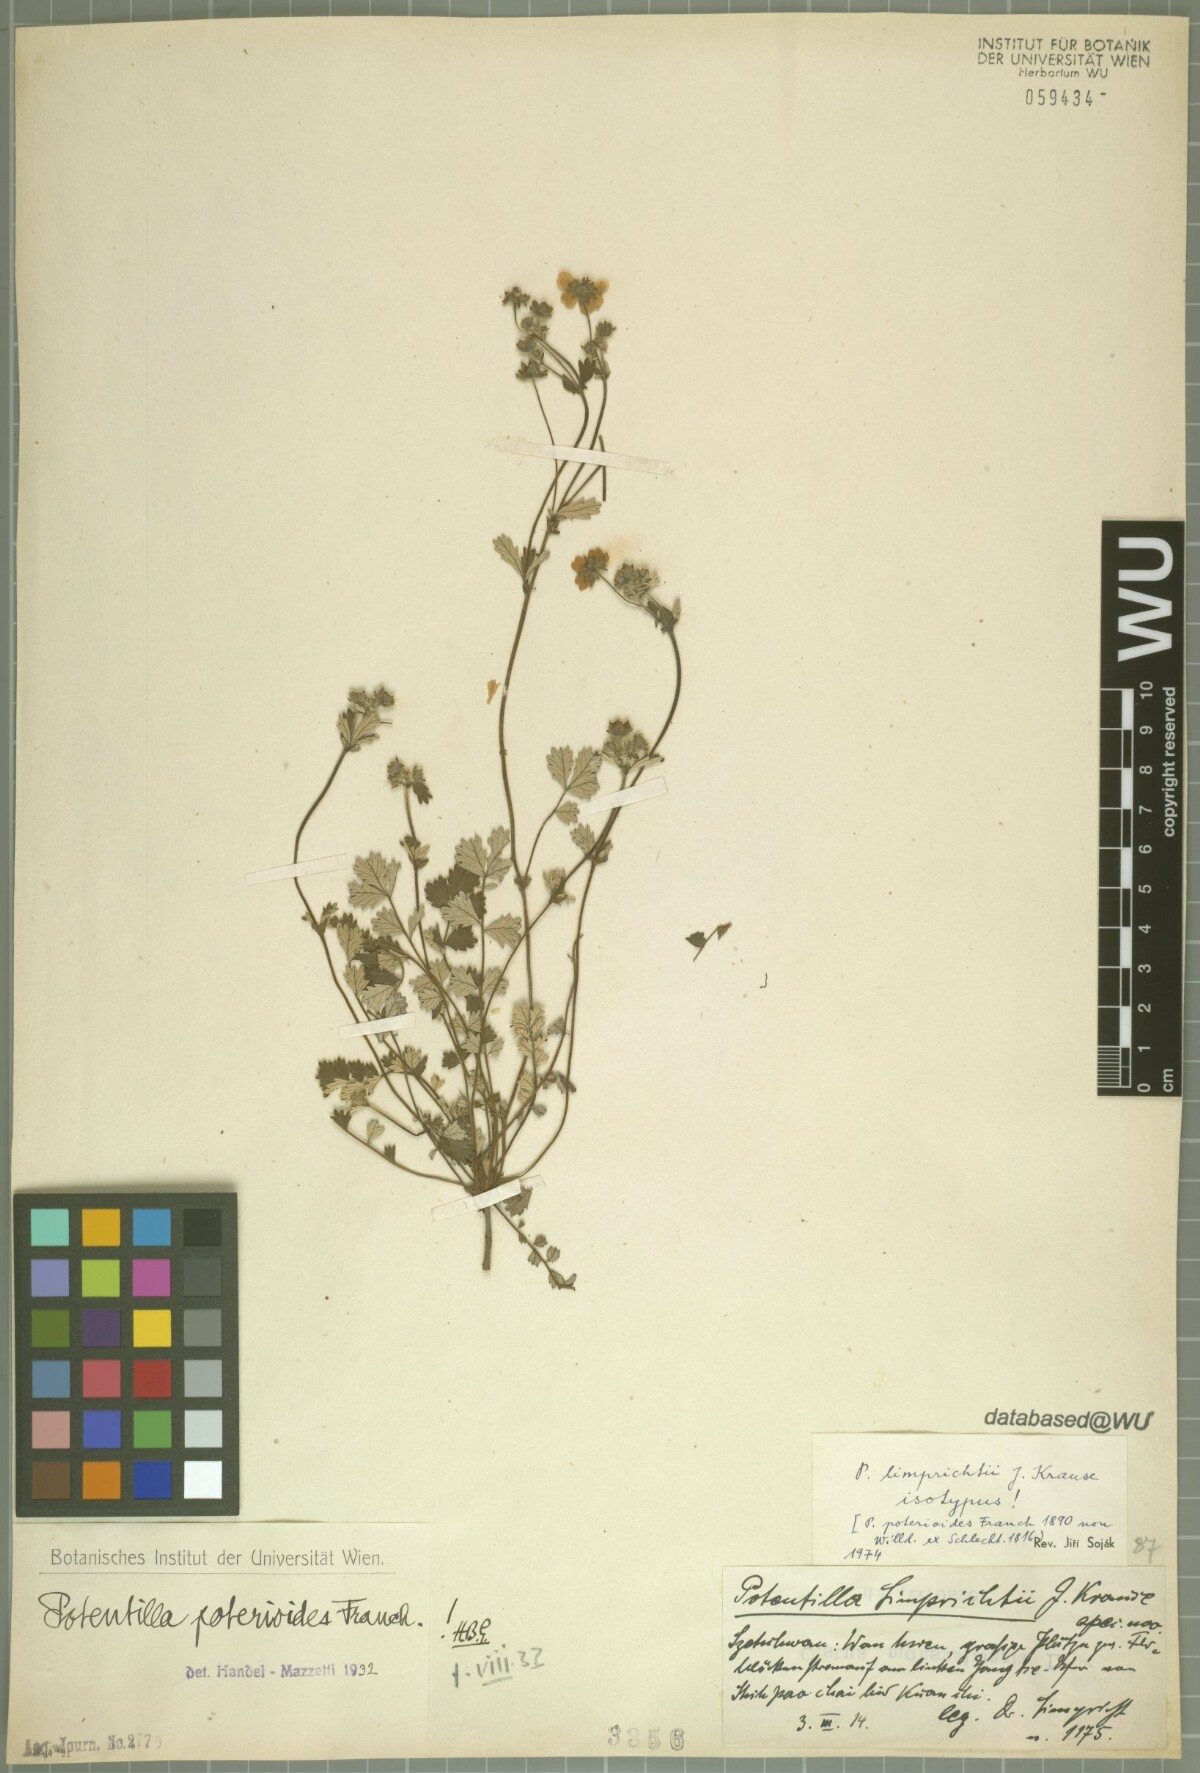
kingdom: Plantae
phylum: Tracheophyta
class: Magnoliopsida
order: Rosales
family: Rosaceae
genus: Potentilla
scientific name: Potentilla limprichtii
